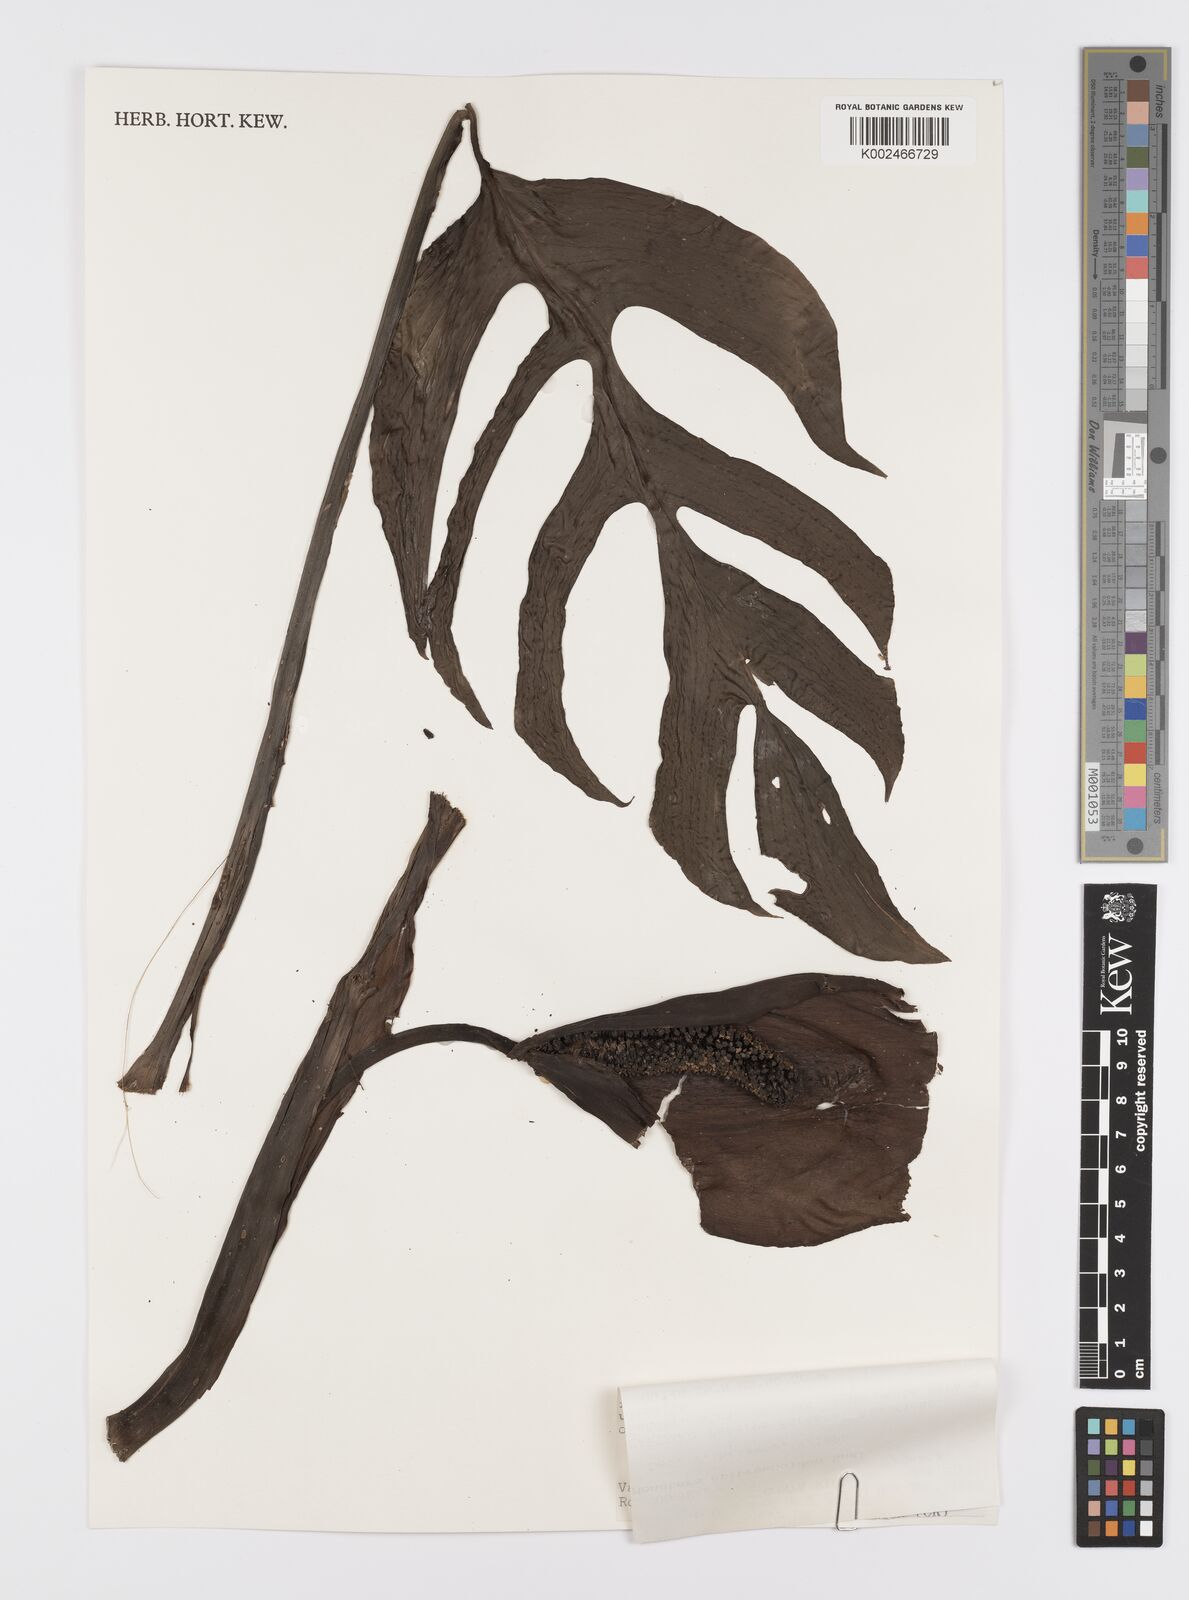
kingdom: Plantae
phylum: Tracheophyta
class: Liliopsida
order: Alismatales
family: Araceae
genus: Monstera
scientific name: Monstera epipremnoides
